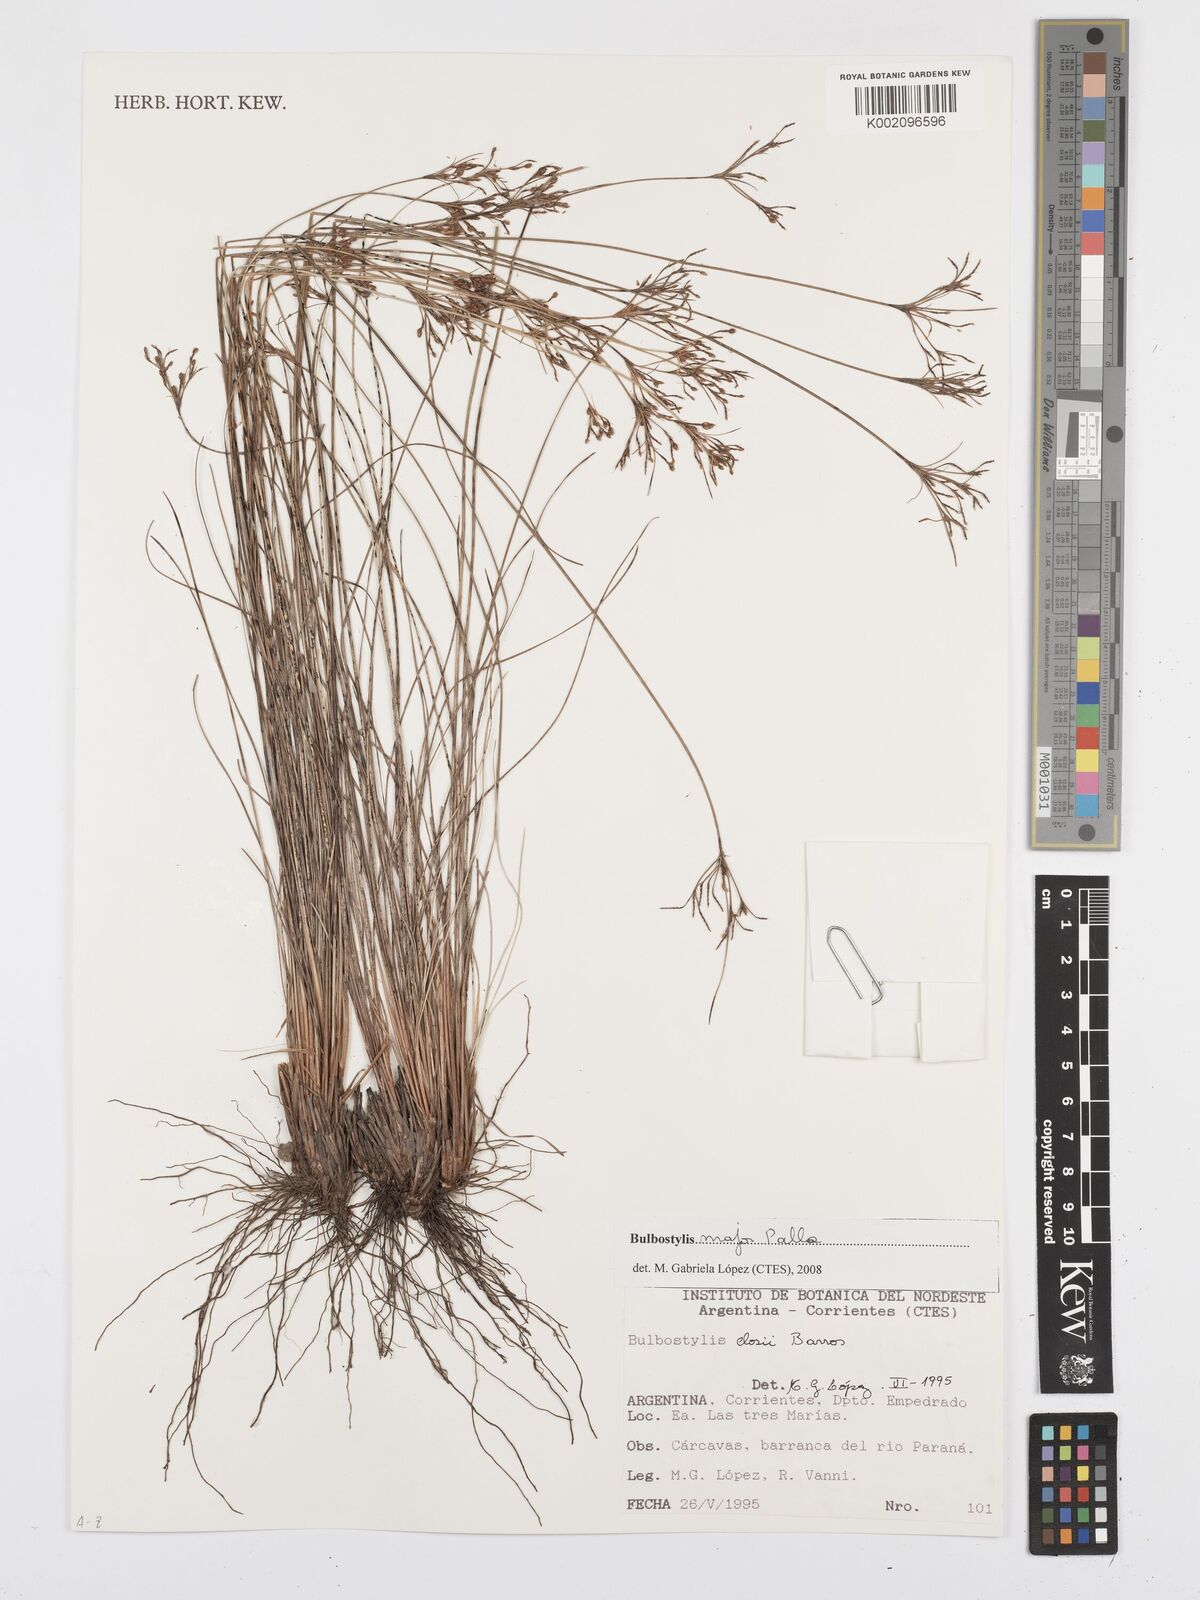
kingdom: Plantae
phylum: Tracheophyta
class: Liliopsida
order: Poales
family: Cyperaceae
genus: Bulbostylis
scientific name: Bulbostylis major
